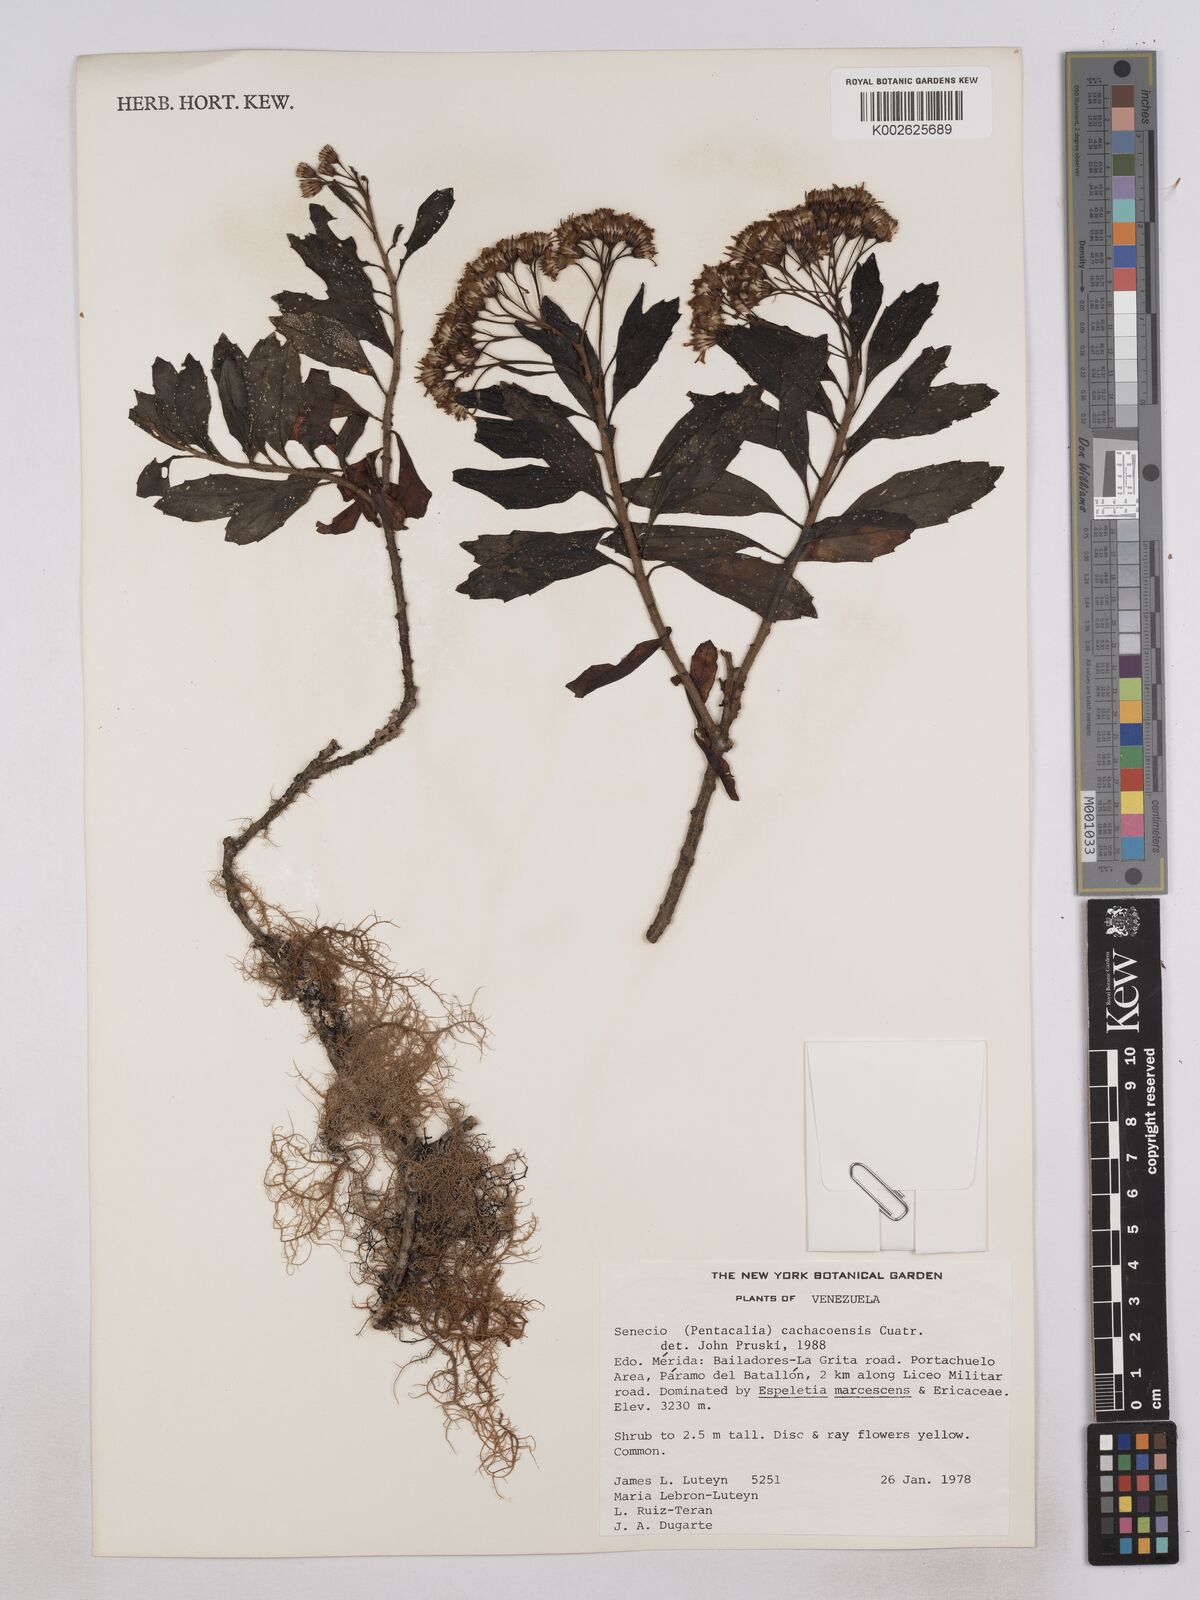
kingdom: Plantae
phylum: Tracheophyta
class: Magnoliopsida
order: Asterales
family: Asteraceae
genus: Monticalia
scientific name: Monticalia cachacoensis
